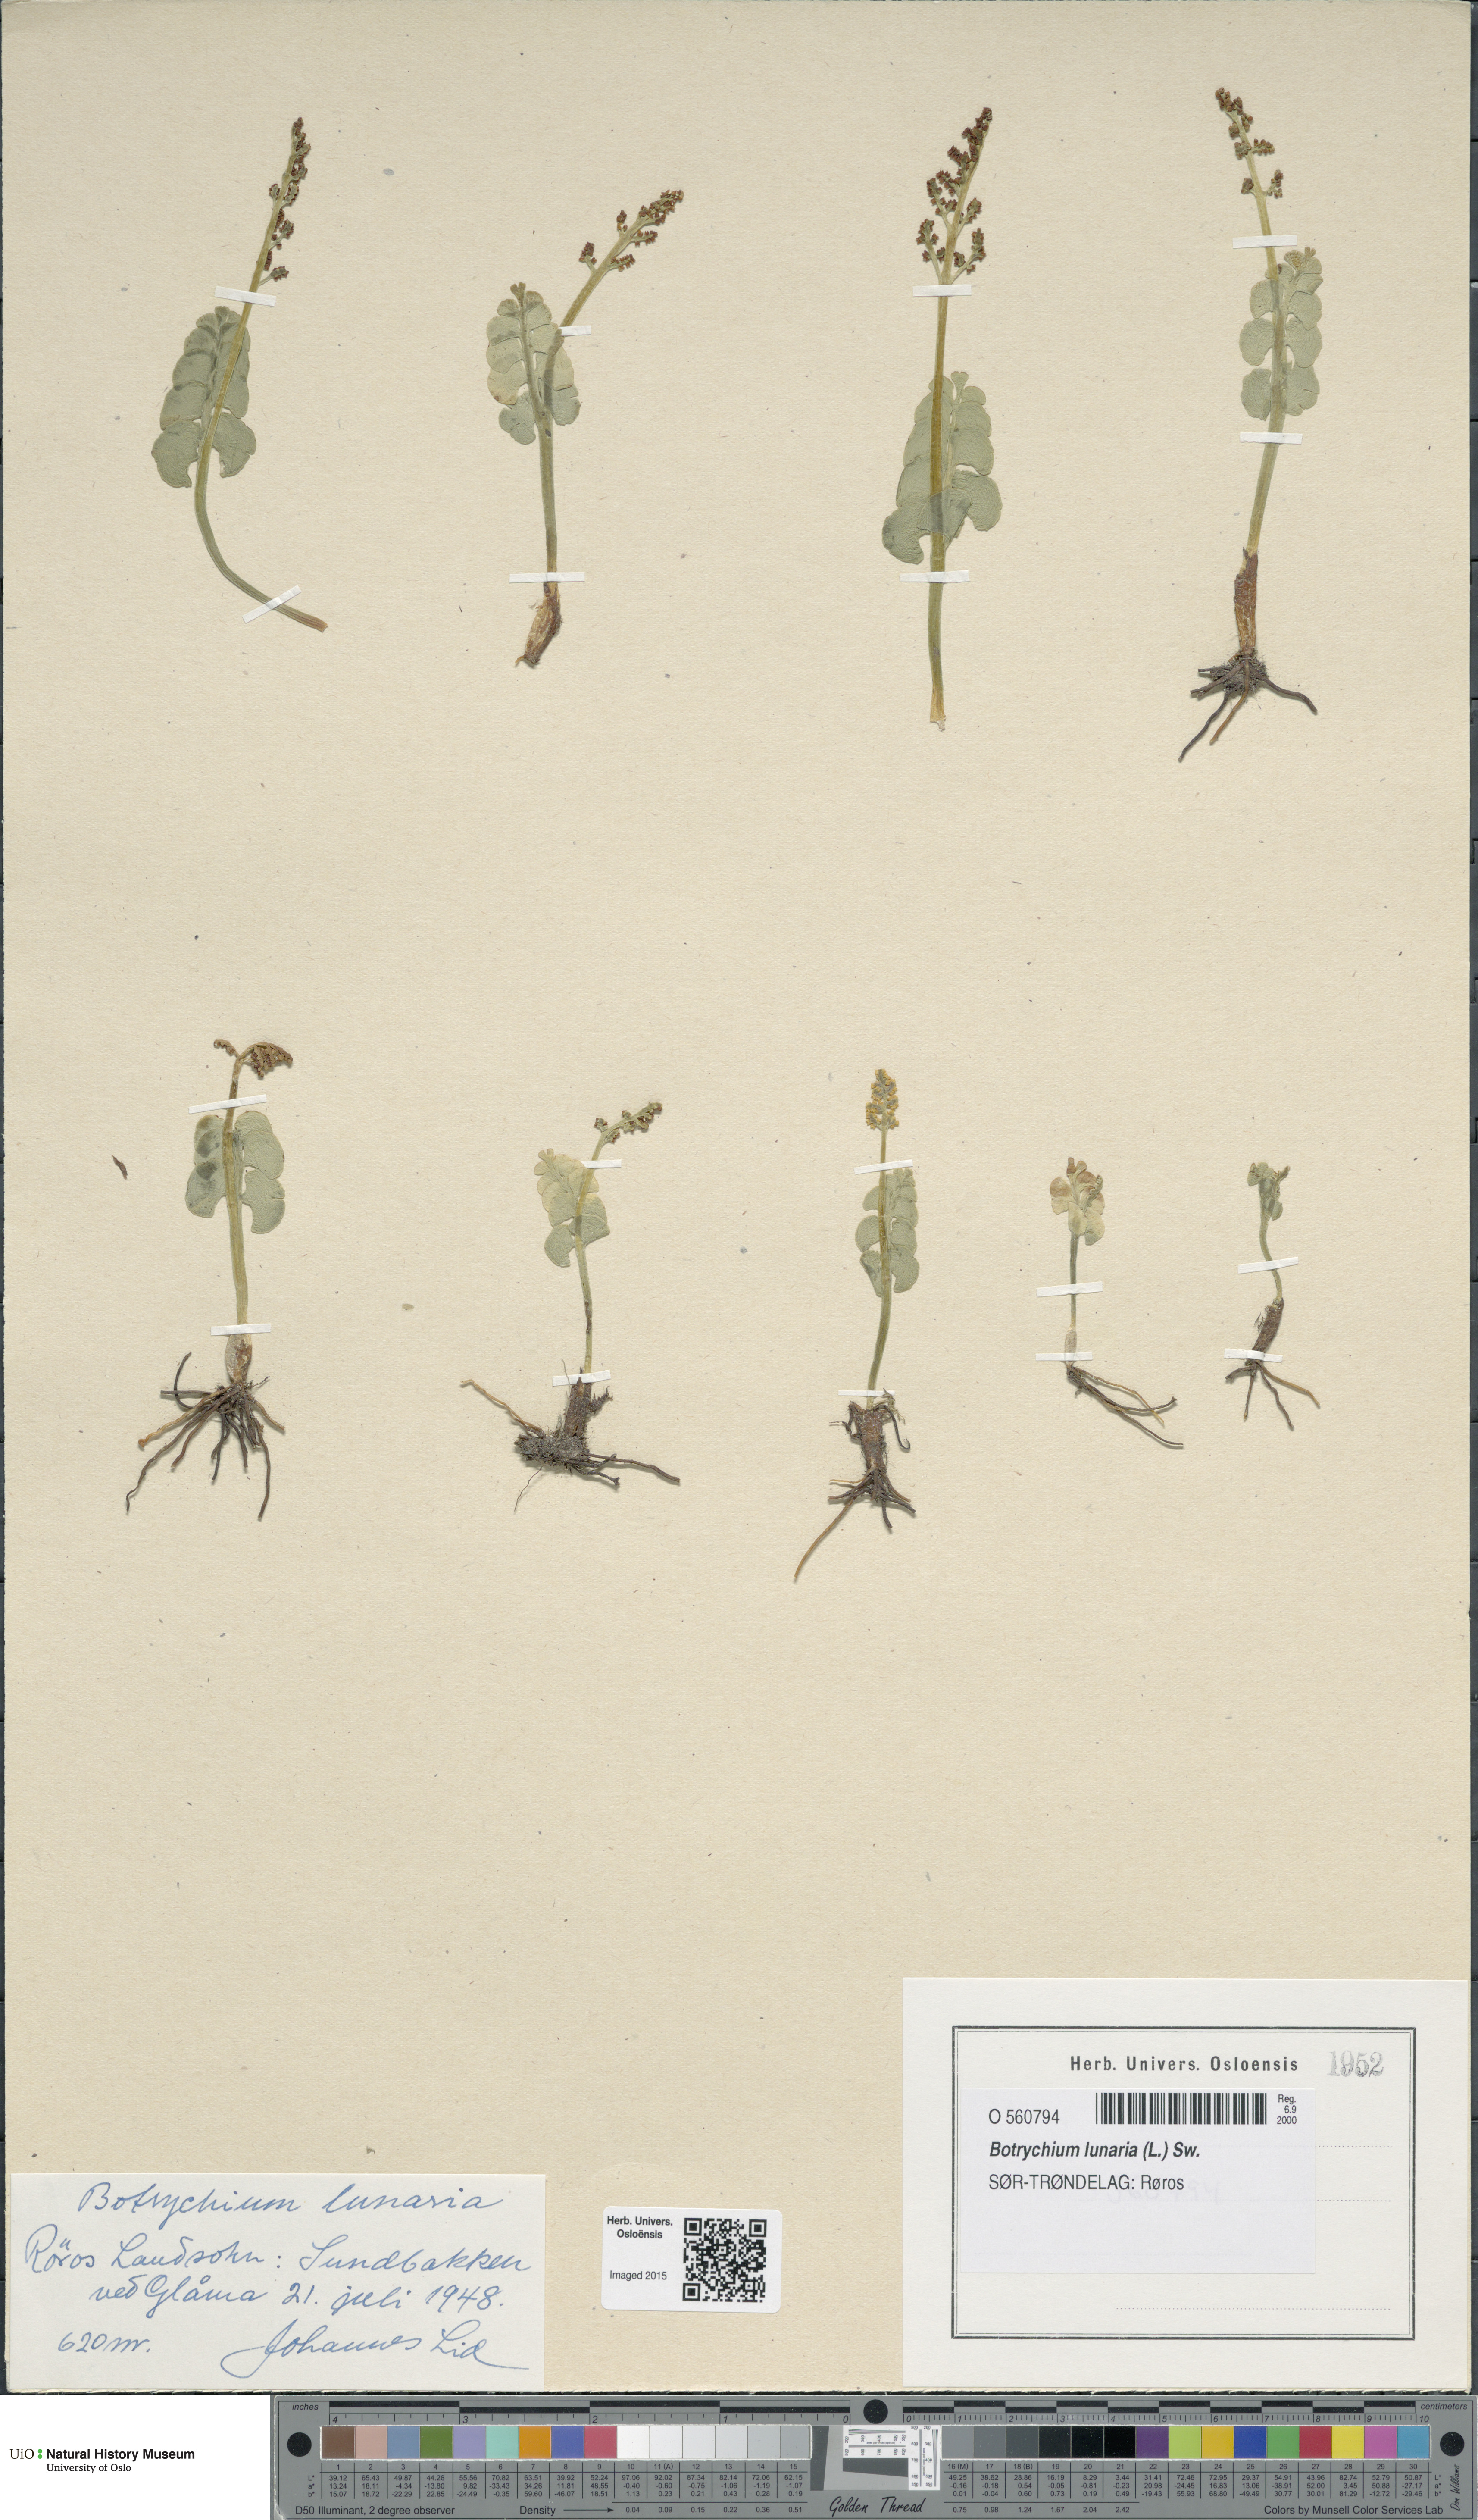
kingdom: Plantae
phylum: Tracheophyta
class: Polypodiopsida
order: Ophioglossales
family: Ophioglossaceae
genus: Botrychium
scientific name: Botrychium lunaria
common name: Moonwort
